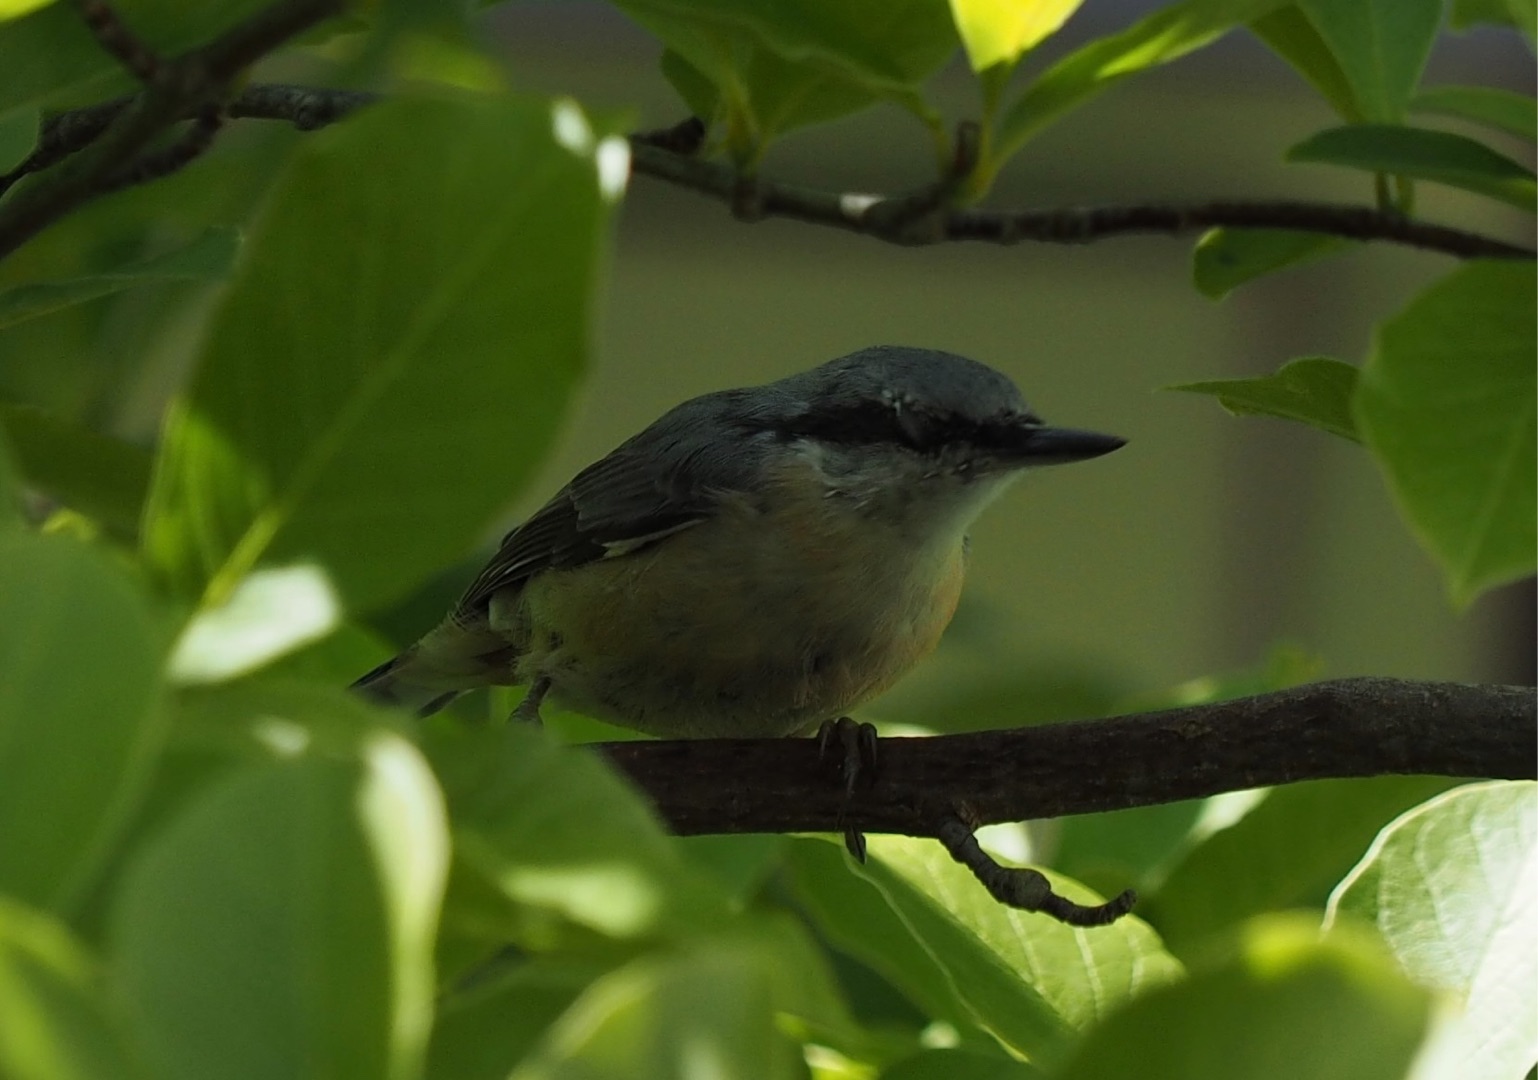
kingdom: Animalia
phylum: Chordata
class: Aves
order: Passeriformes
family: Sittidae
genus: Sitta
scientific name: Sitta europaea
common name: Spætmejse
